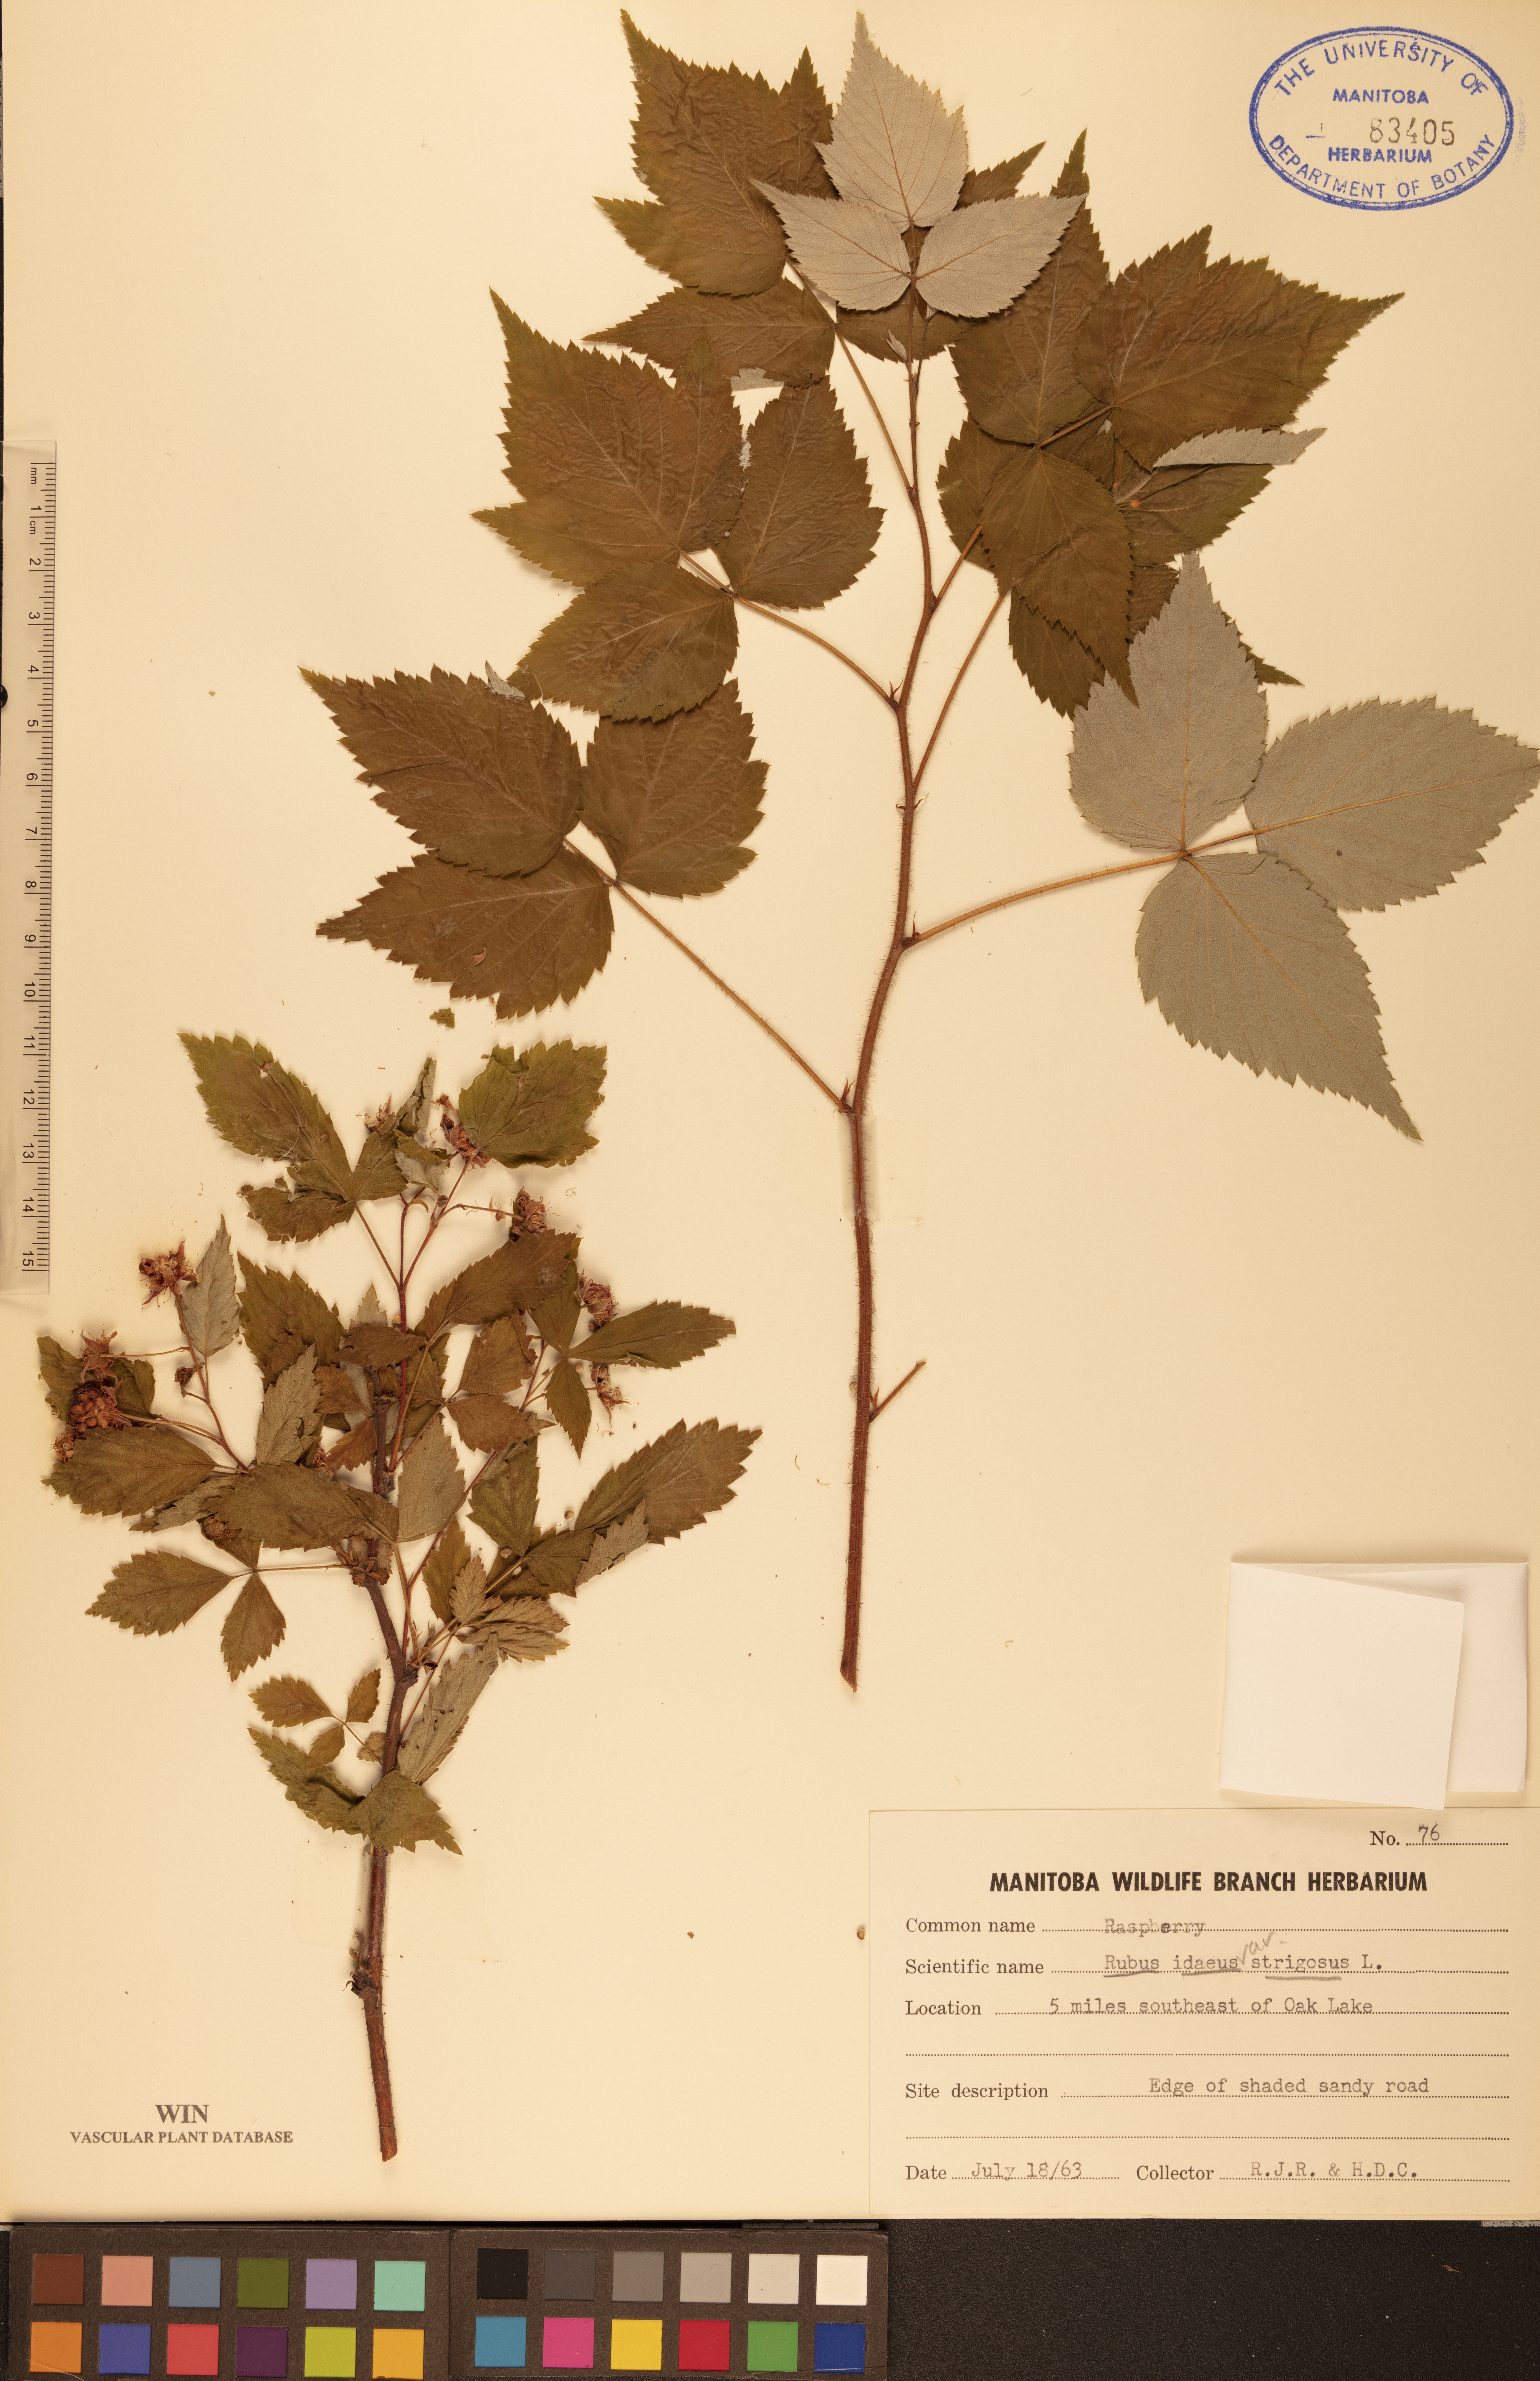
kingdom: Plantae
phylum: Tracheophyta
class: Magnoliopsida
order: Rosales
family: Rosaceae
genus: Rubus
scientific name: Rubus idaeus
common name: Raspberry
